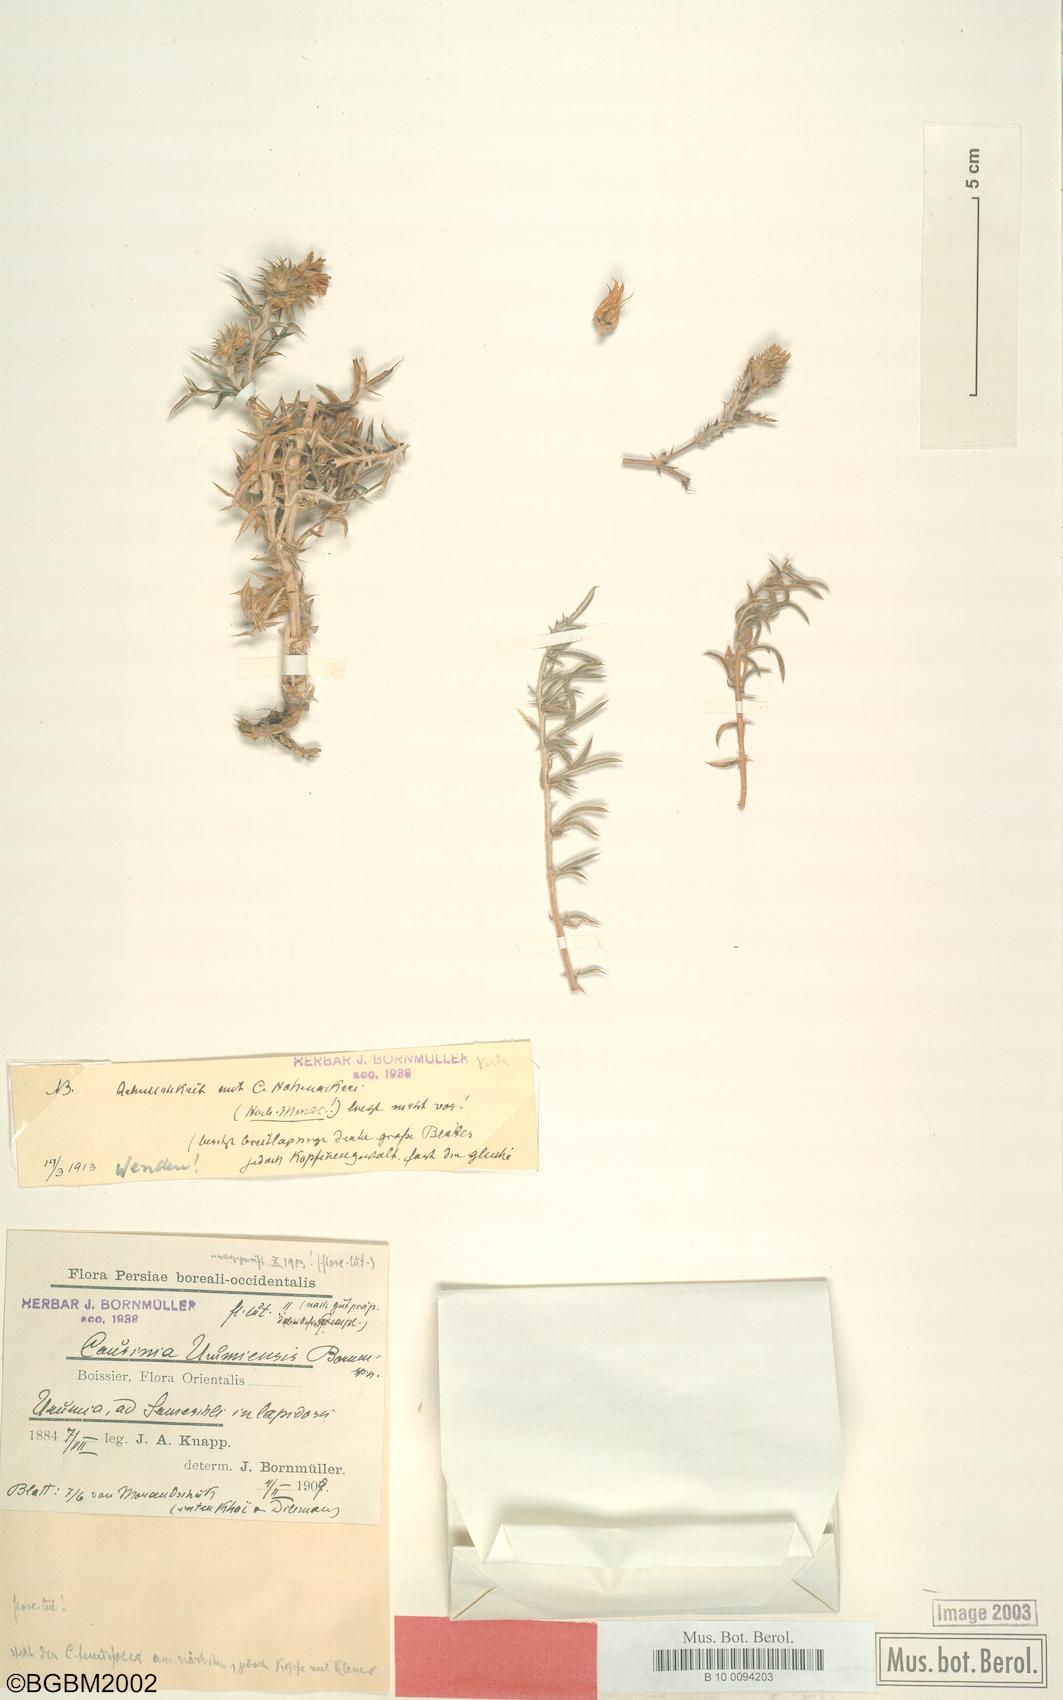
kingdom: Plantae
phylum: Tracheophyta
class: Magnoliopsida
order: Asterales
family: Asteraceae
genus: Cousinia
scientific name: Cousinia urumiensis
